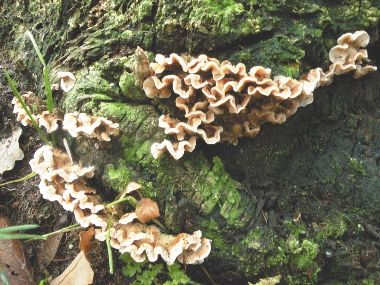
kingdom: Fungi
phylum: Basidiomycota
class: Agaricomycetes
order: Russulales
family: Stereaceae
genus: Stereum
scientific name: Stereum hirsutum
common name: håret lædersvamp
